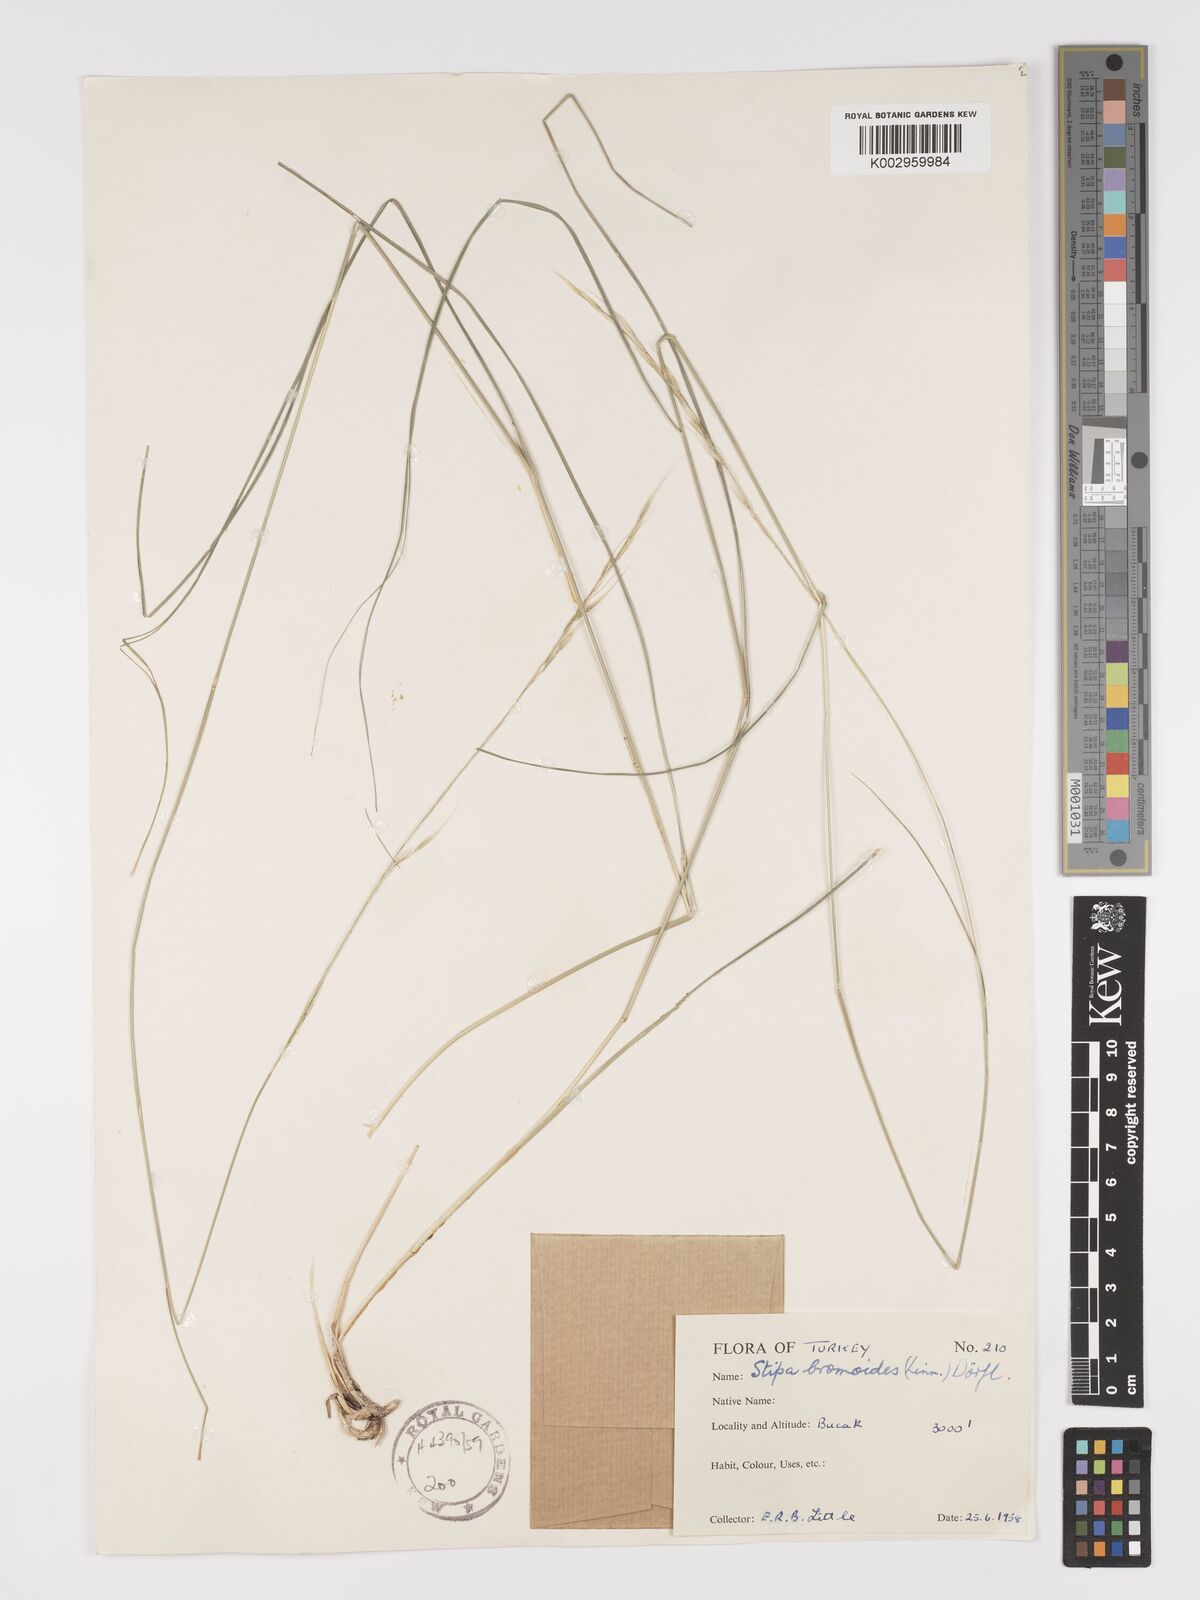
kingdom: Plantae
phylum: Tracheophyta
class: Liliopsida
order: Poales
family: Poaceae
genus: Achnatherum
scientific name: Achnatherum bromoides
